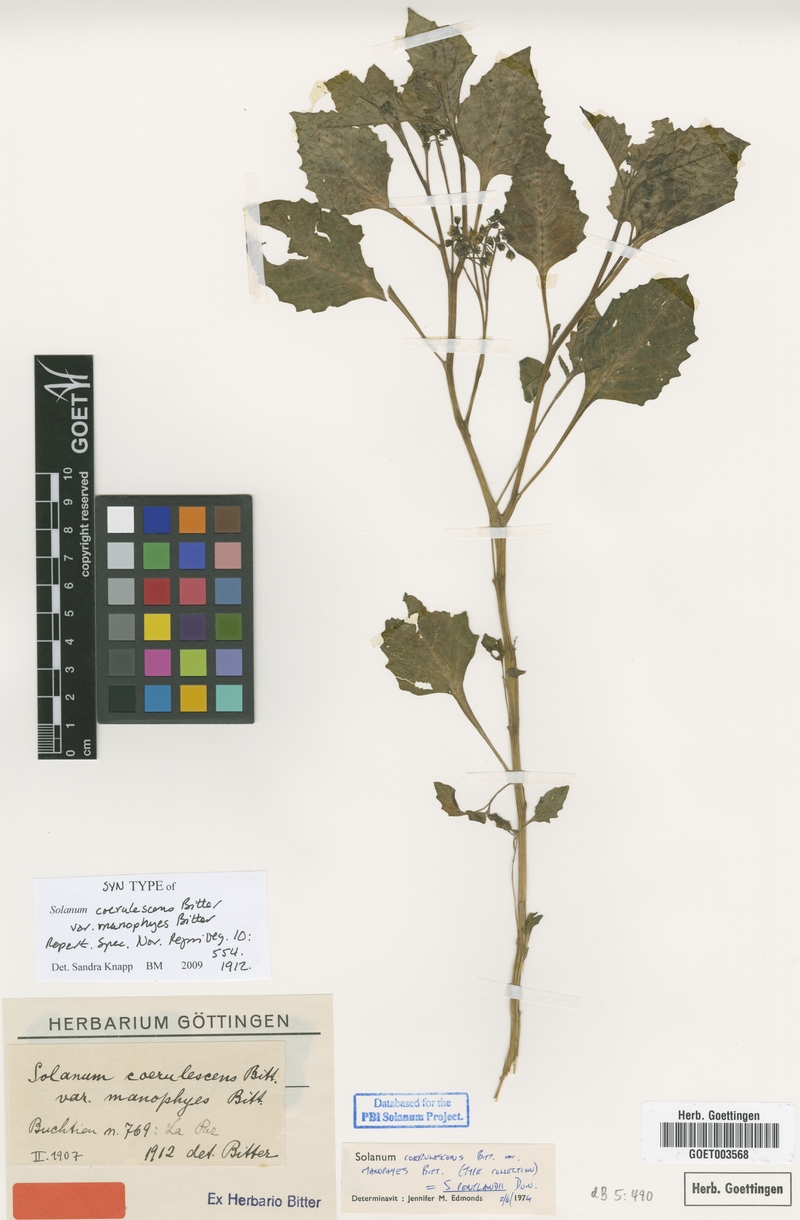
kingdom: Plantae
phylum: Tracheophyta
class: Magnoliopsida
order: Solanales
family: Solanaceae
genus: Solanum
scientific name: Solanum pentlandii
